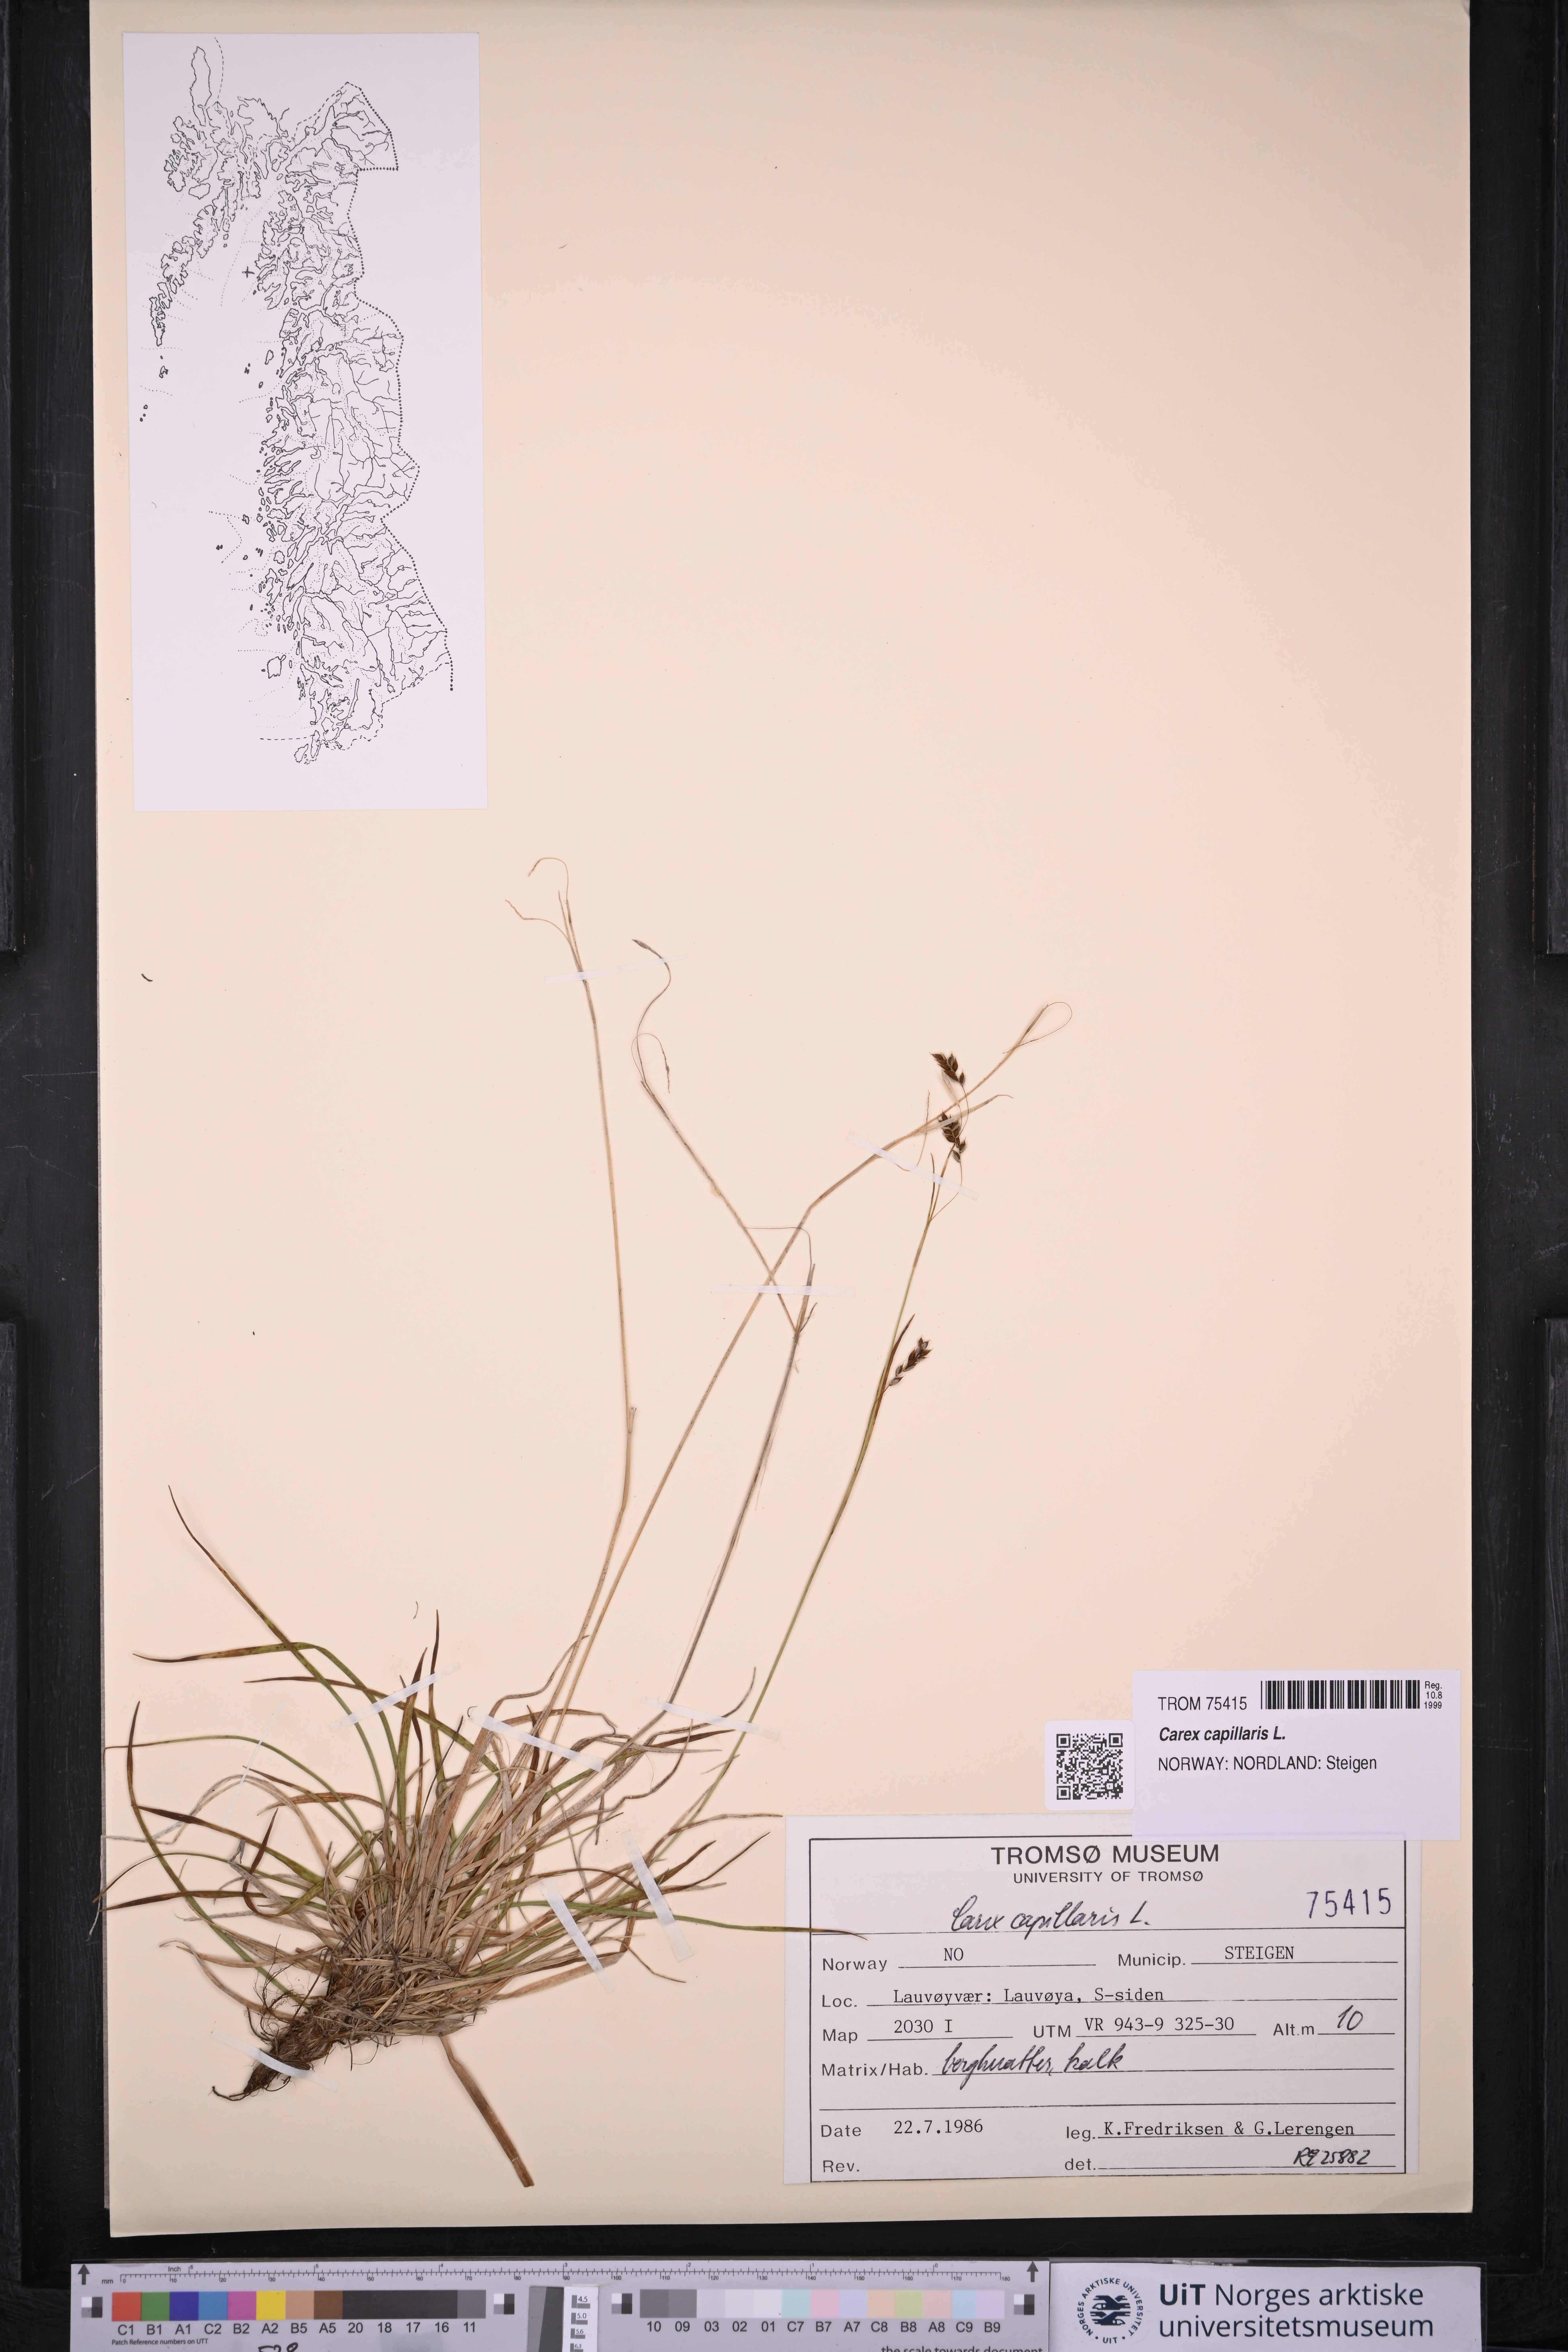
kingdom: Plantae
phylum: Tracheophyta
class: Liliopsida
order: Poales
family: Cyperaceae
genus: Carex
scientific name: Carex capillaris
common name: Hair sedge
